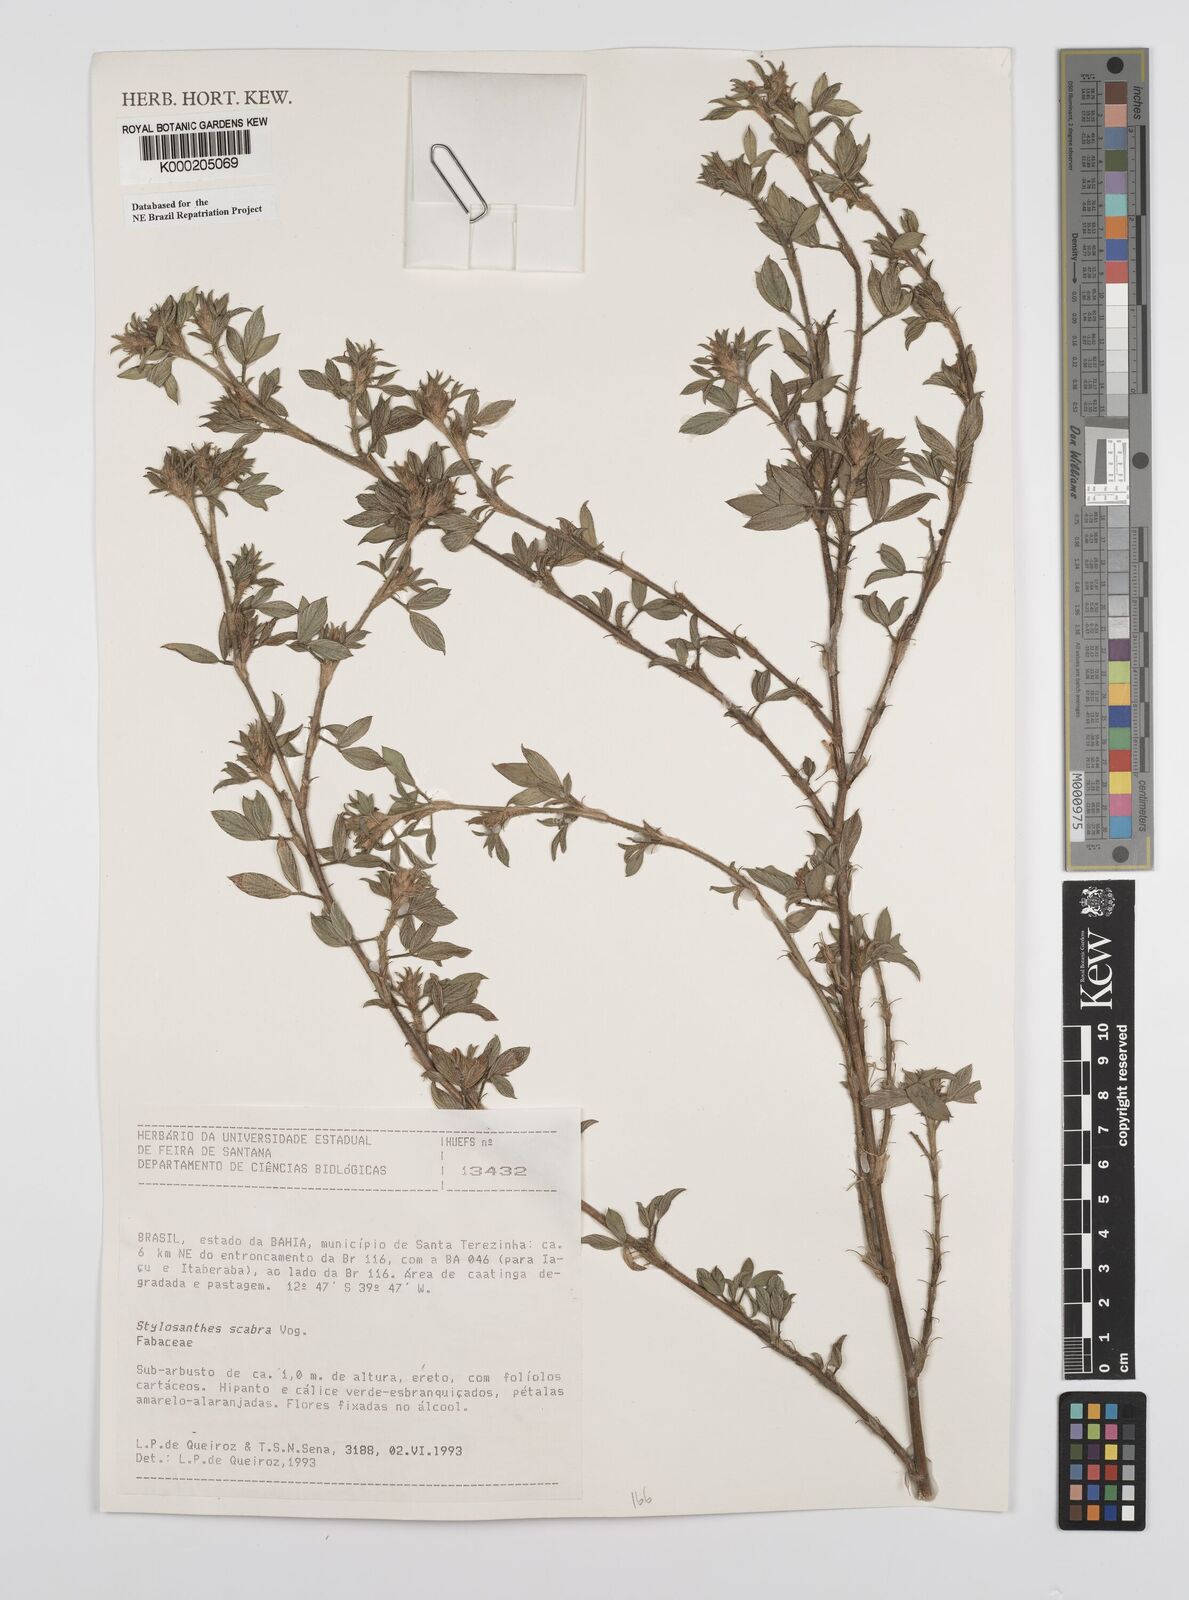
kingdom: Plantae
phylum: Tracheophyta
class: Magnoliopsida
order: Fabales
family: Fabaceae
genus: Stylosanthes
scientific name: Stylosanthes scabra
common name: Pencilflower
